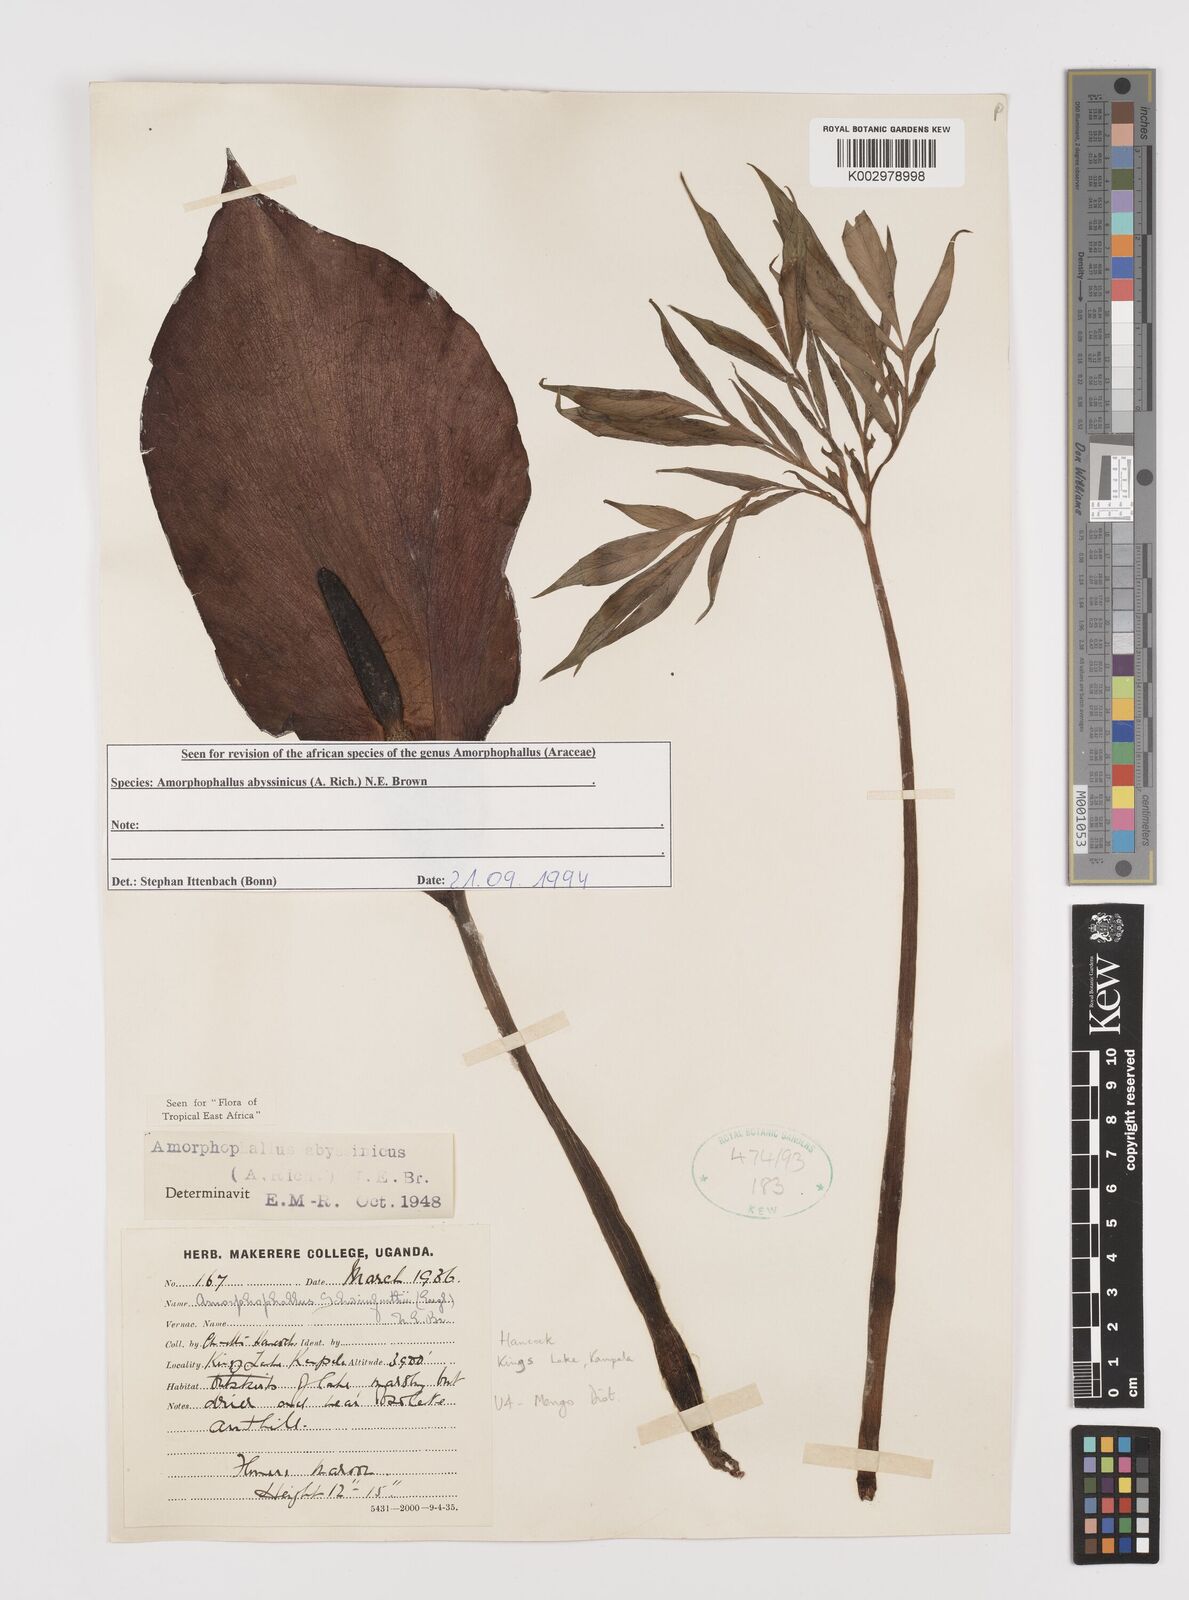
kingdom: Plantae
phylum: Tracheophyta
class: Liliopsida
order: Alismatales
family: Araceae
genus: Amorphophallus
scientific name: Amorphophallus abyssinicus
